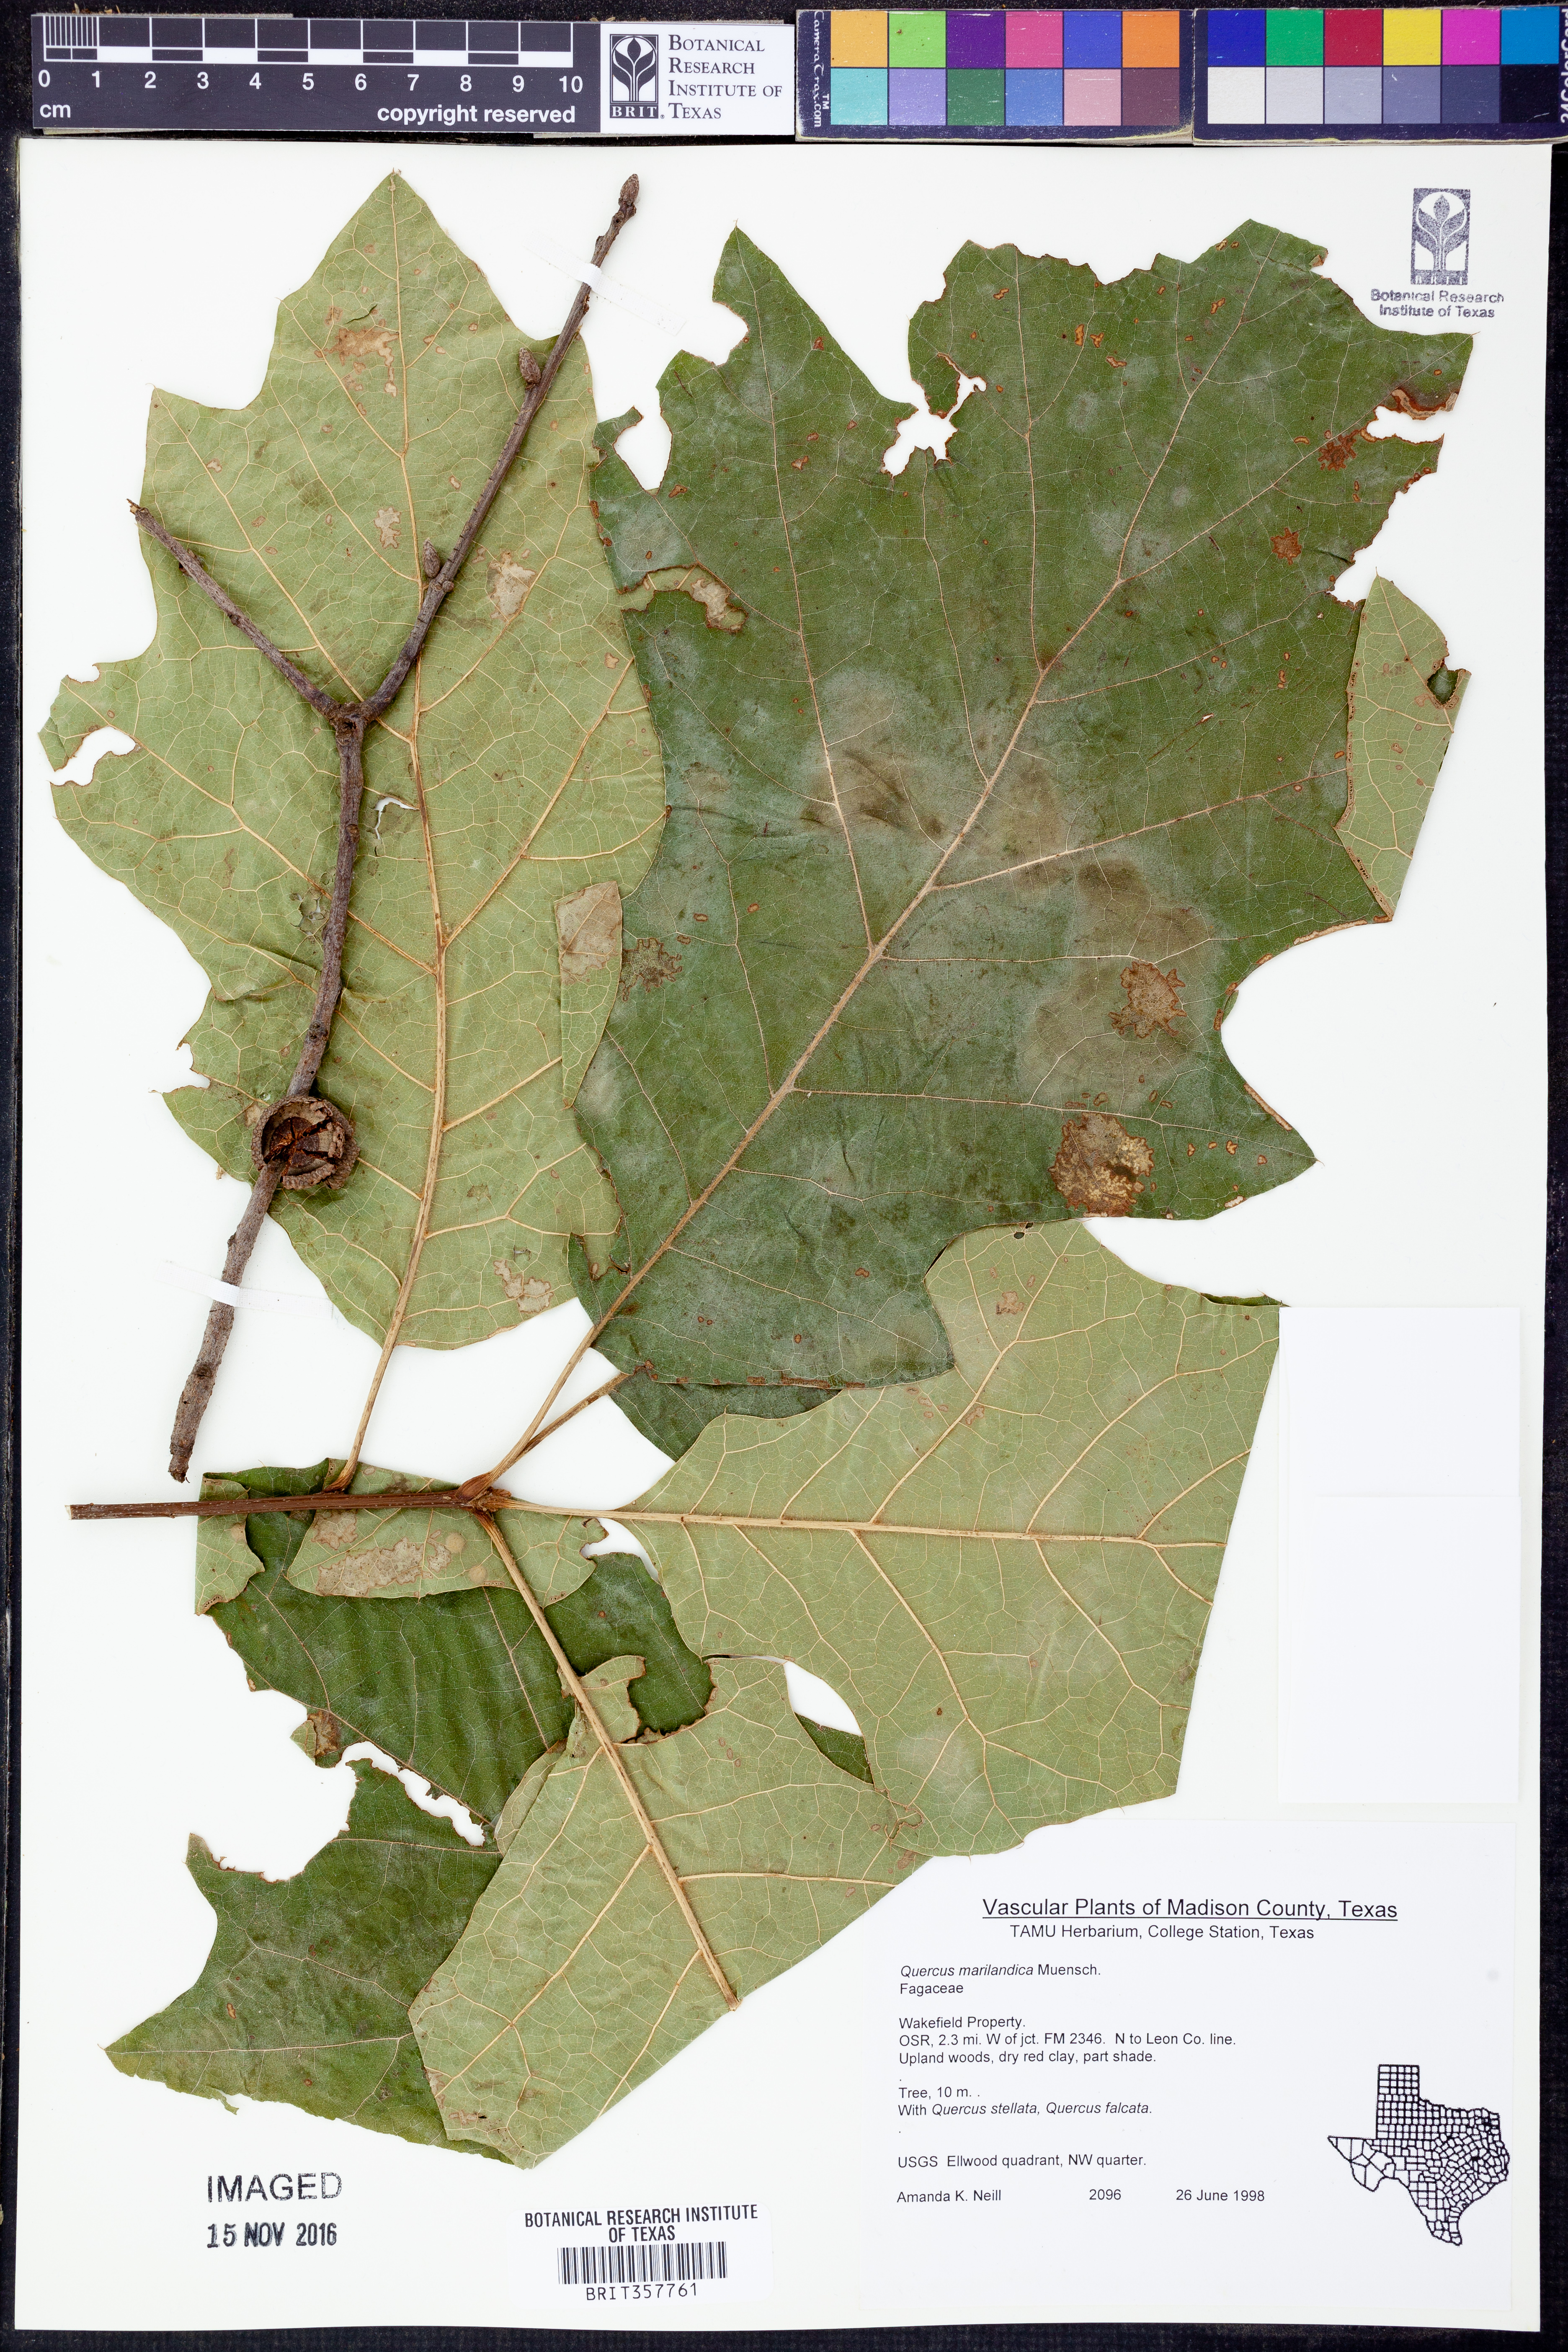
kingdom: Plantae
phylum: Tracheophyta
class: Magnoliopsida
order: Fagales
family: Fagaceae
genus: Quercus
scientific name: Quercus marilandica
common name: Blackjack oak
